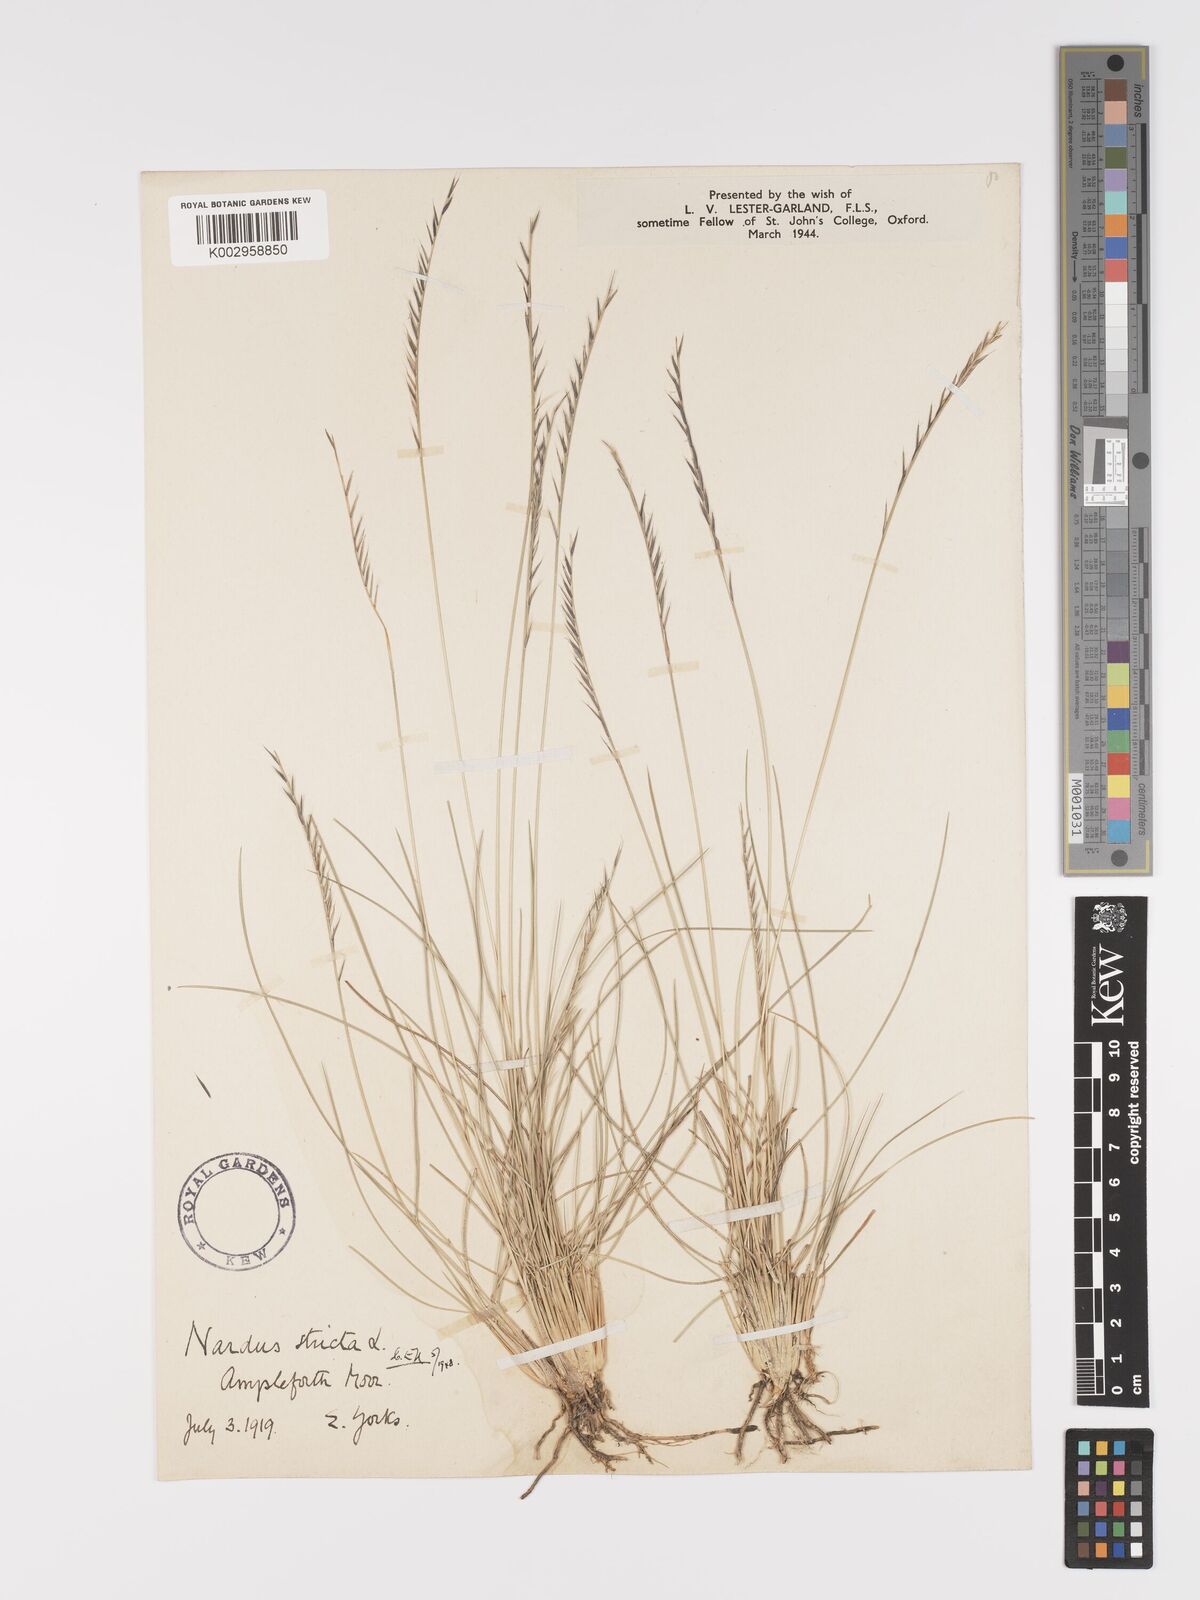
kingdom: Plantae
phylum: Tracheophyta
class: Liliopsida
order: Poales
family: Poaceae
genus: Nardus
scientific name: Nardus stricta
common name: Mat-grass
